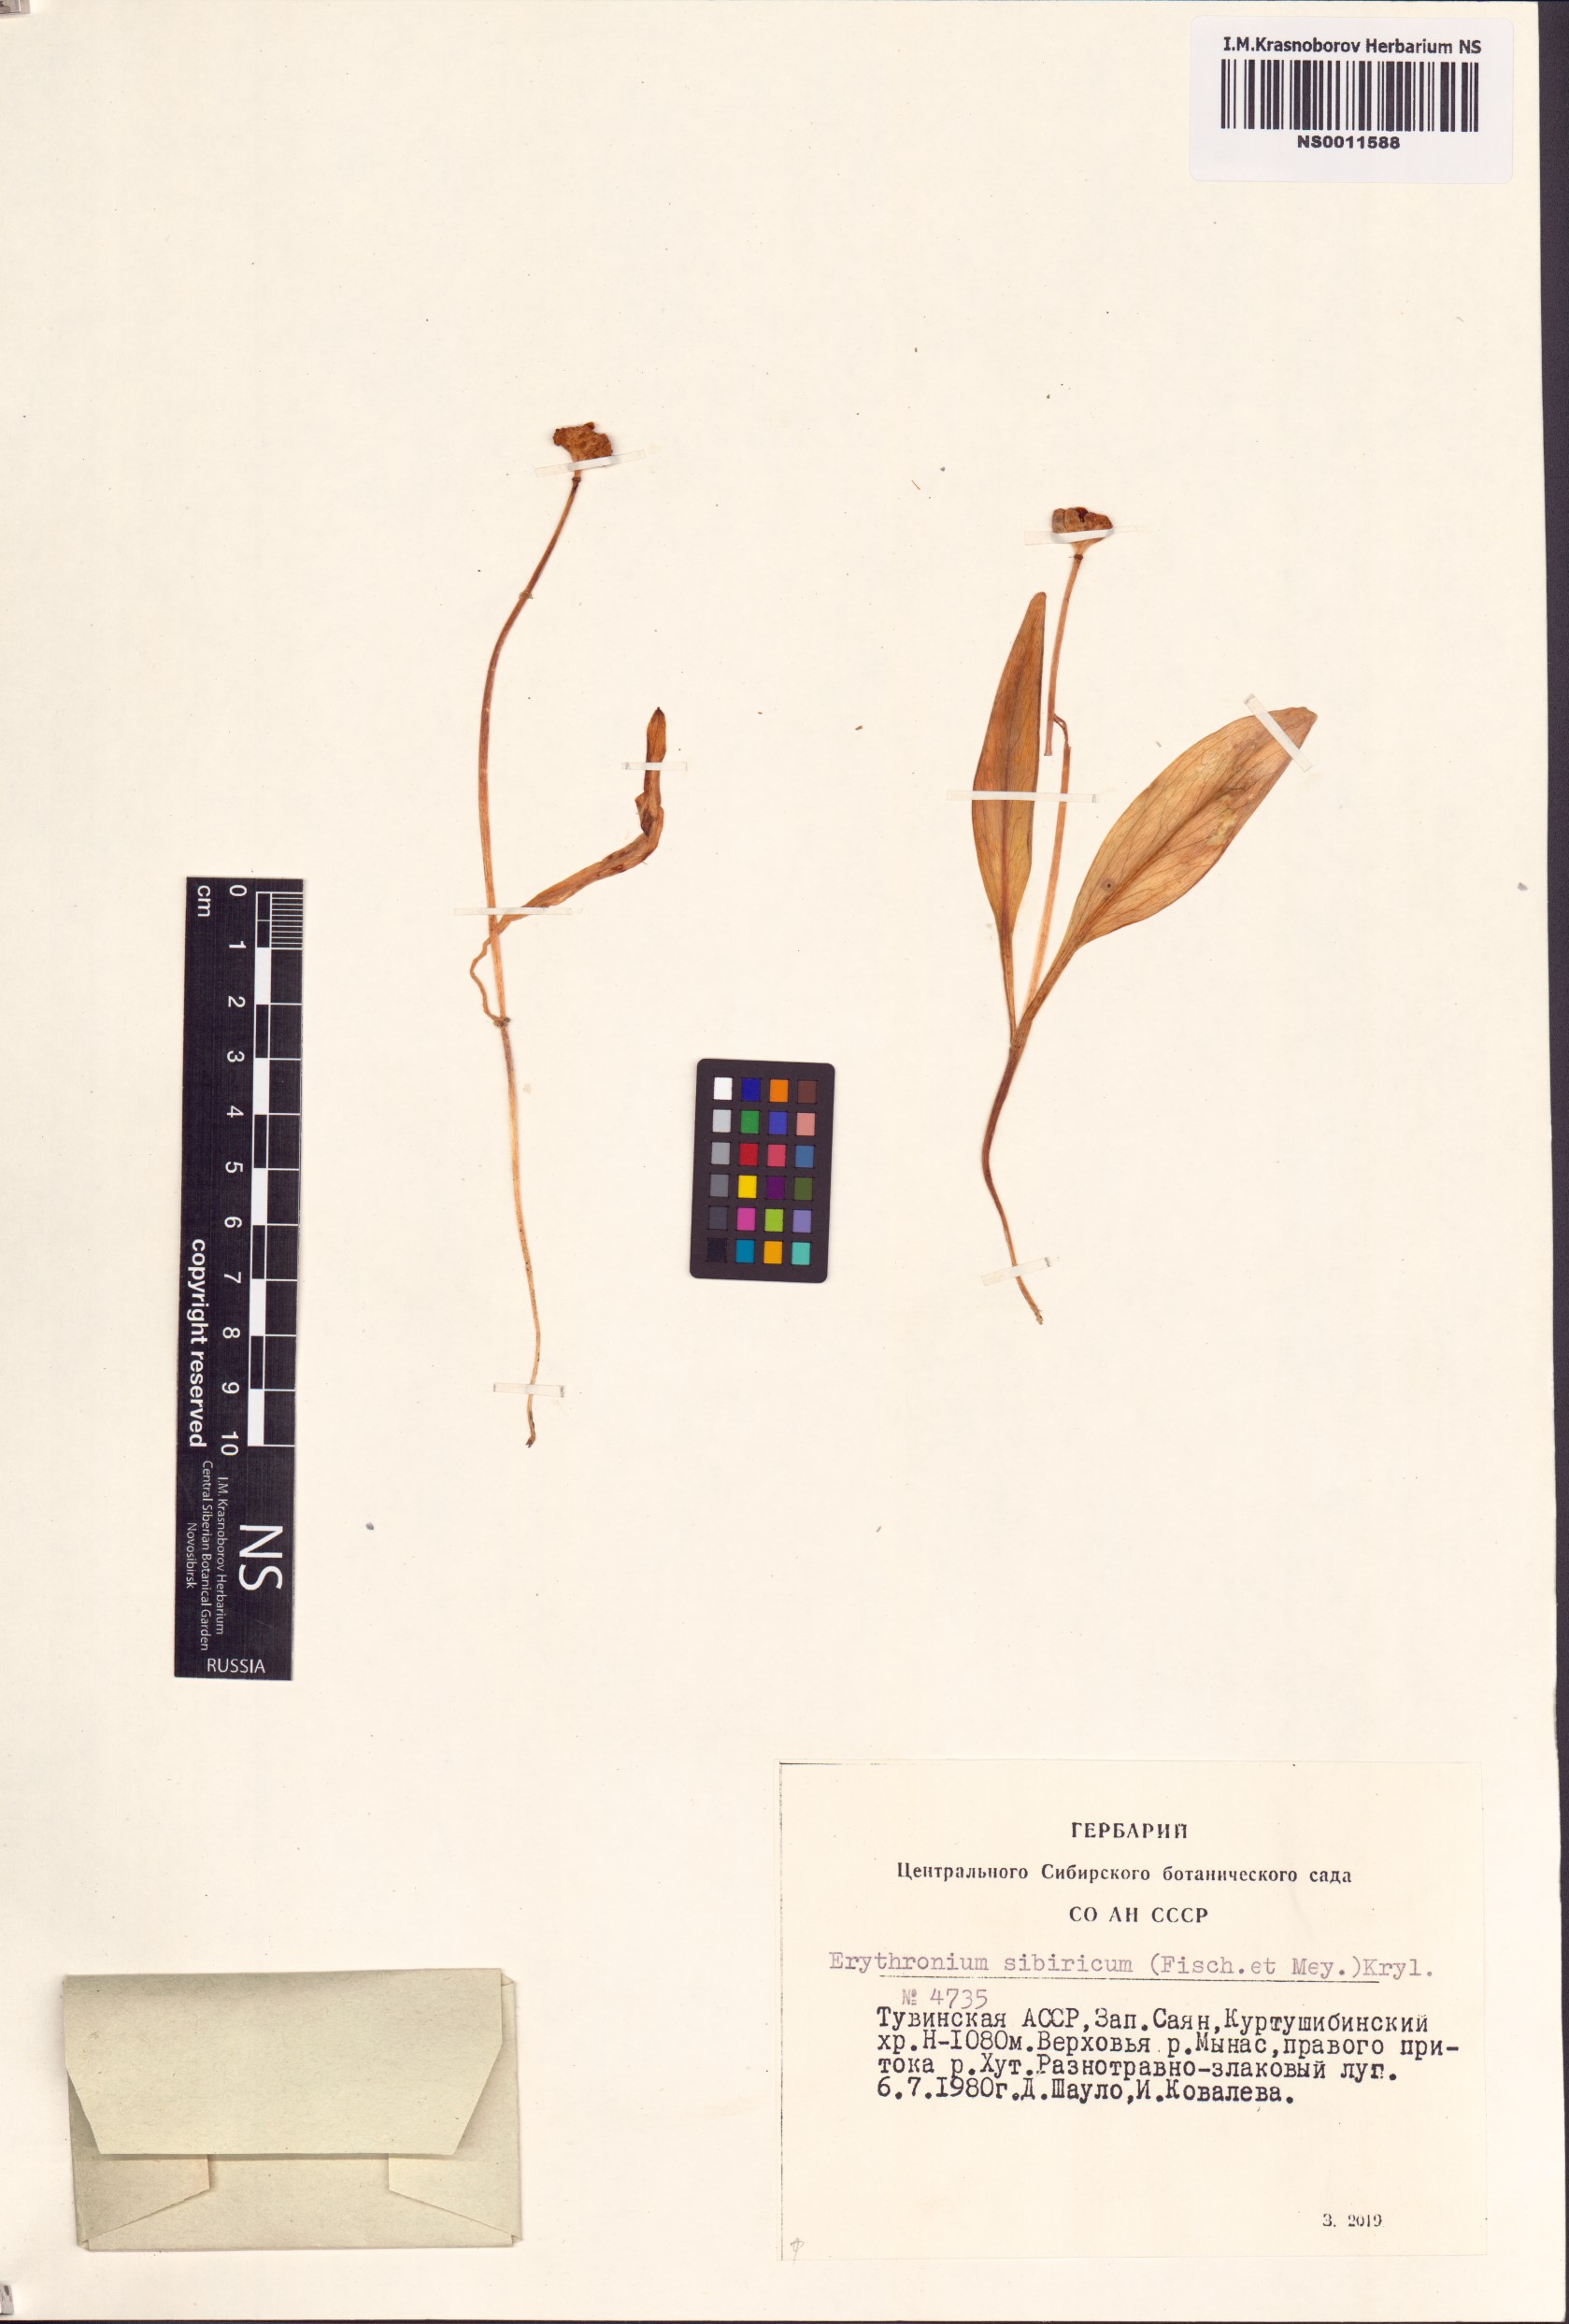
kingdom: Plantae
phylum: Tracheophyta
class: Liliopsida
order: Liliales
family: Liliaceae
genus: Erythronium
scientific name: Erythronium sibiricum
